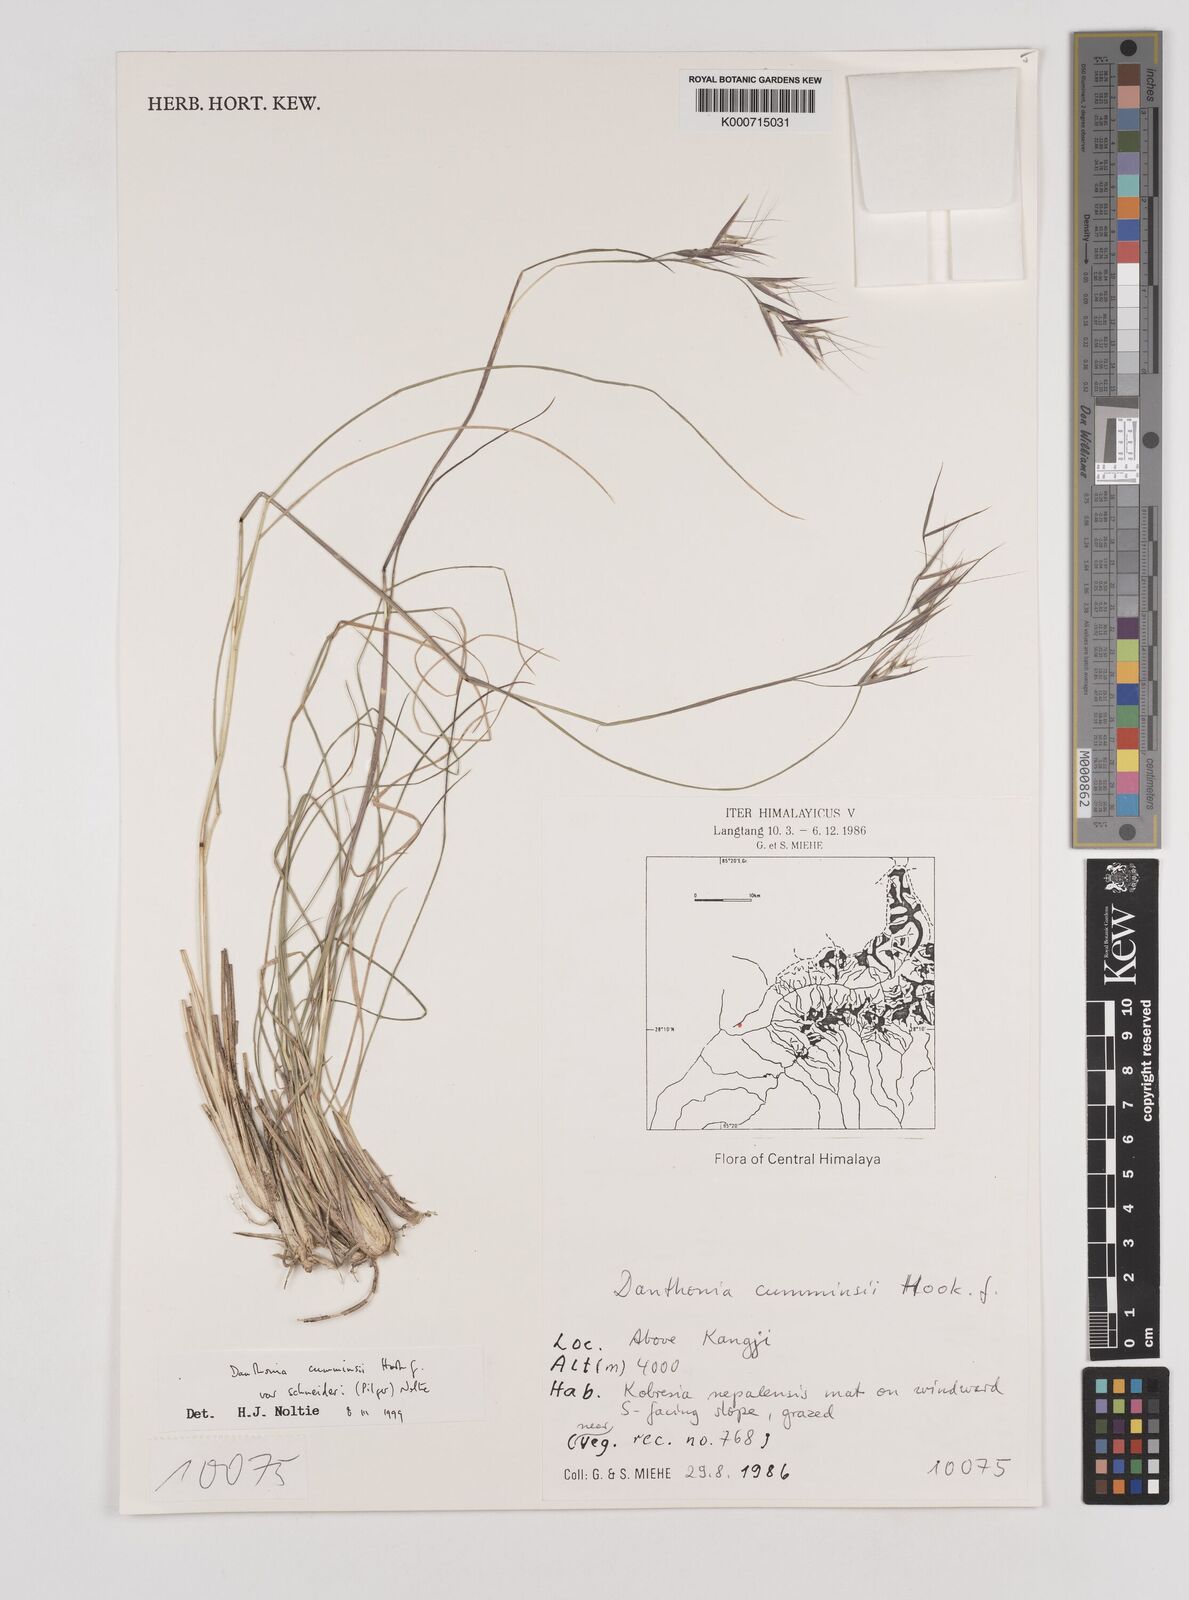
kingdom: Plantae
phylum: Tracheophyta
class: Liliopsida
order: Poales
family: Poaceae
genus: Rytidosperma
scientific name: Rytidosperma
